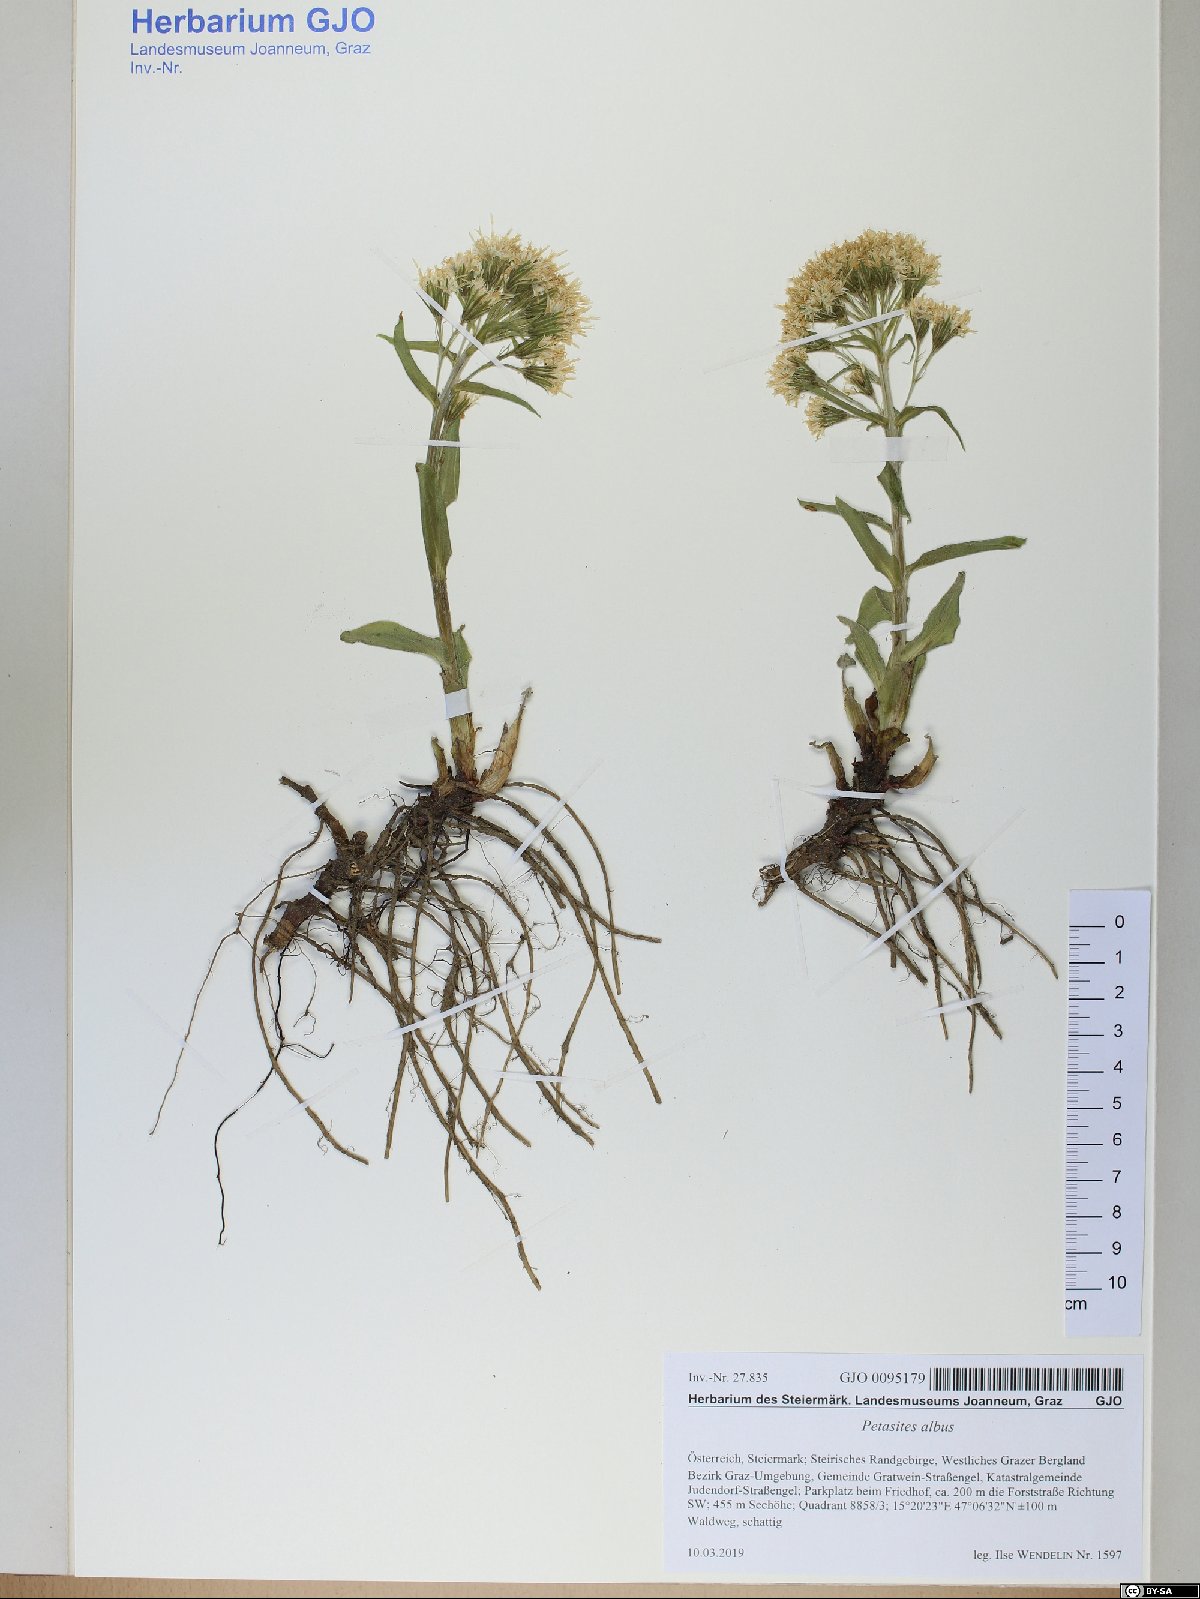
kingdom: Plantae
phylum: Tracheophyta
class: Magnoliopsida
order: Asterales
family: Asteraceae
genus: Petasites
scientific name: Petasites albus
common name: White butterbur
